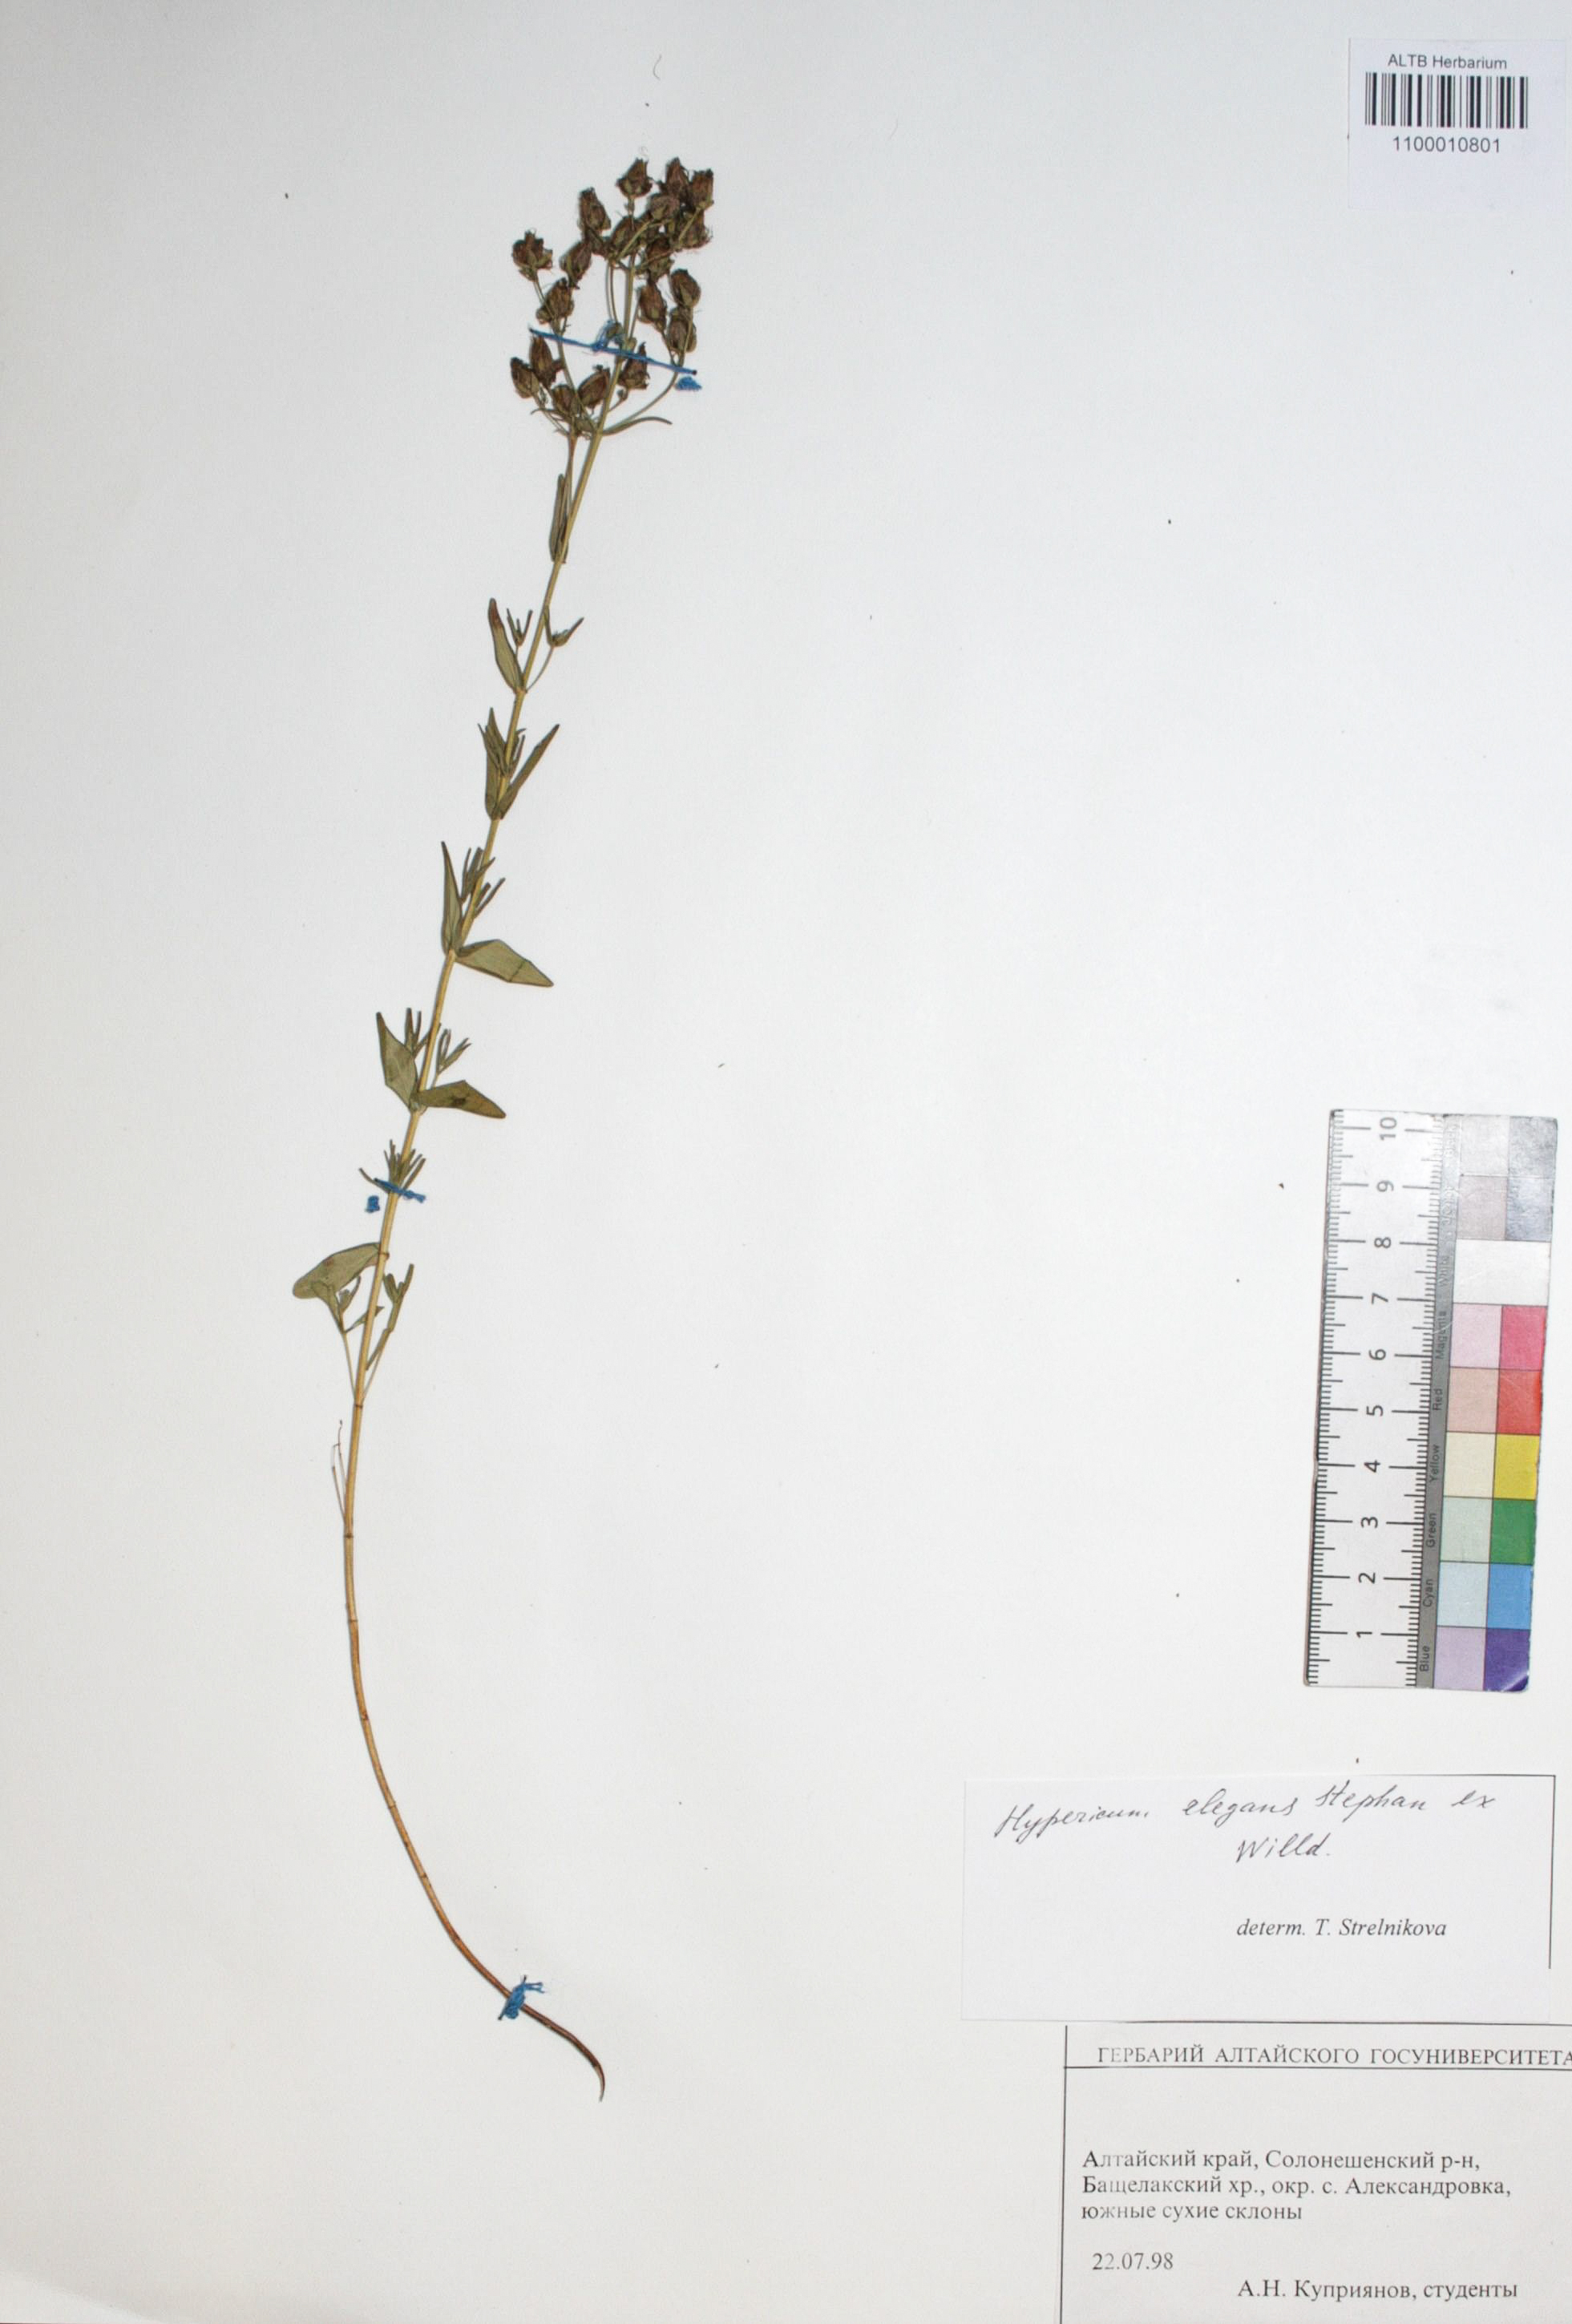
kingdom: Plantae
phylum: Tracheophyta
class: Magnoliopsida
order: Malpighiales
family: Hypericaceae
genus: Hypericum
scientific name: Hypericum elegans
